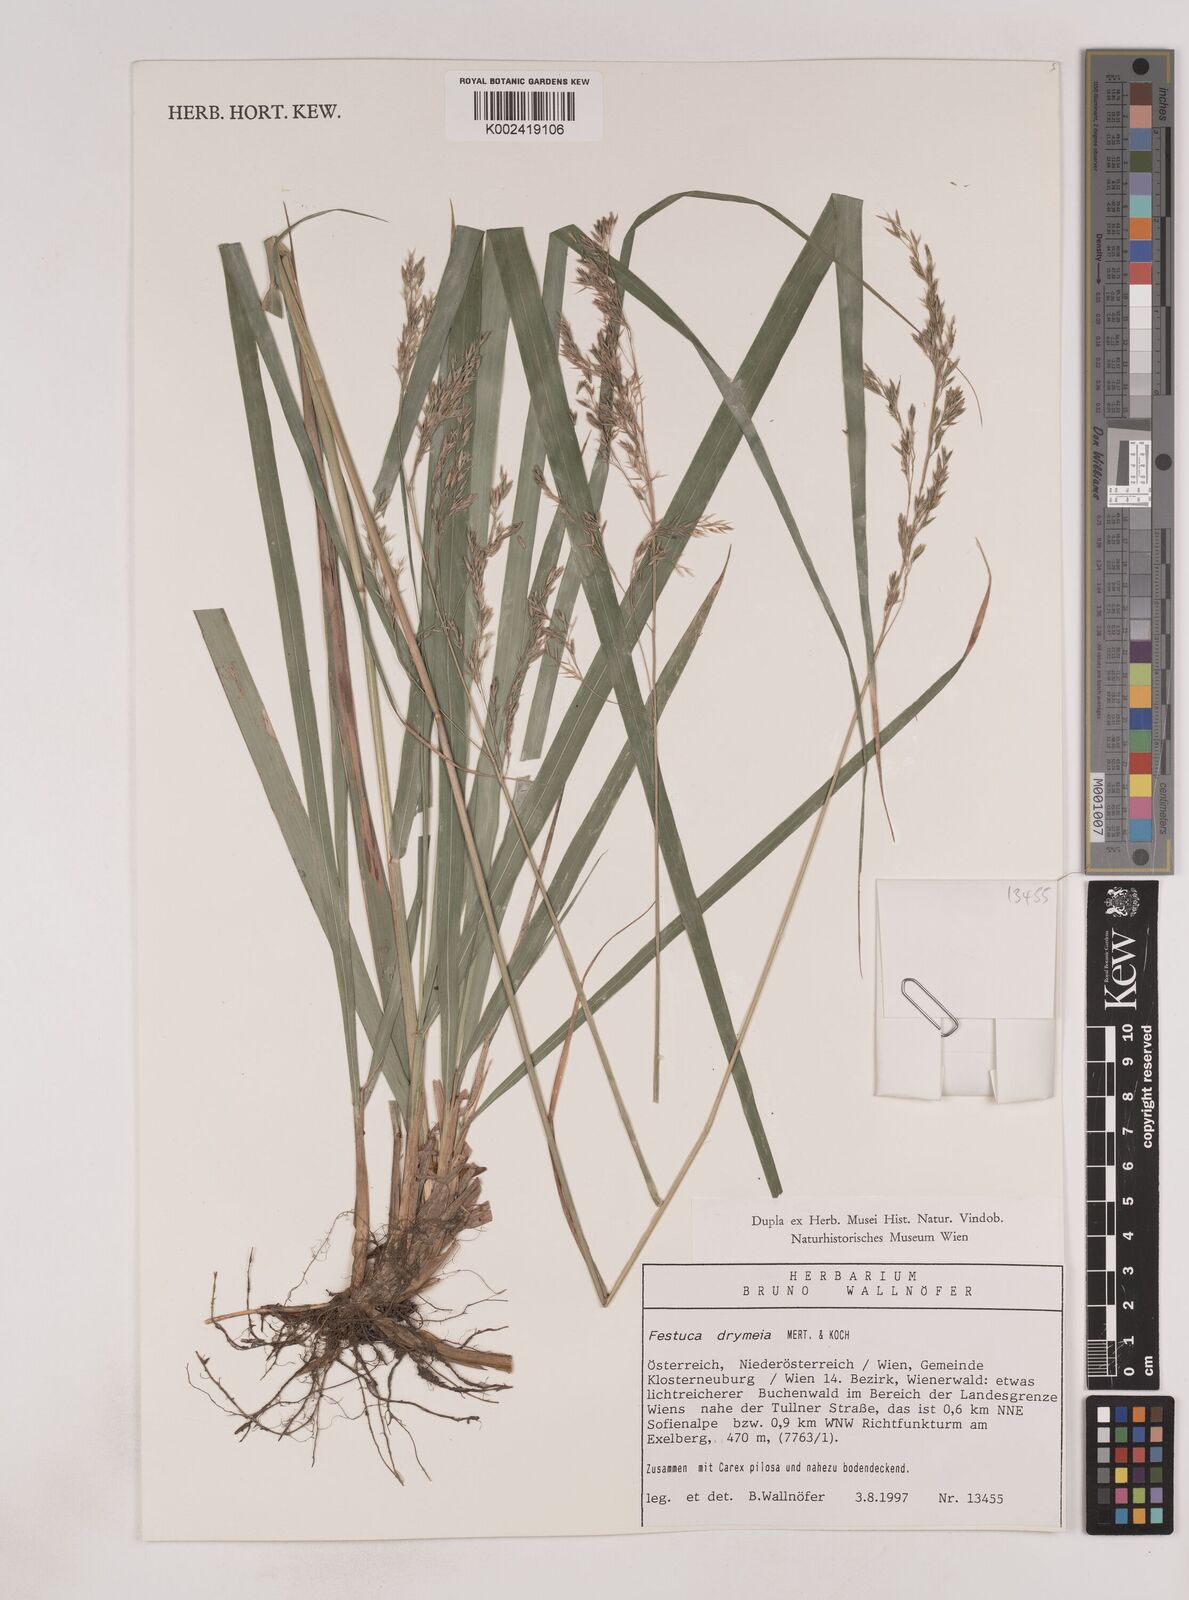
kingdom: Plantae
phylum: Tracheophyta
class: Liliopsida
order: Poales
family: Poaceae
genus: Festuca
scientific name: Festuca drymeja
